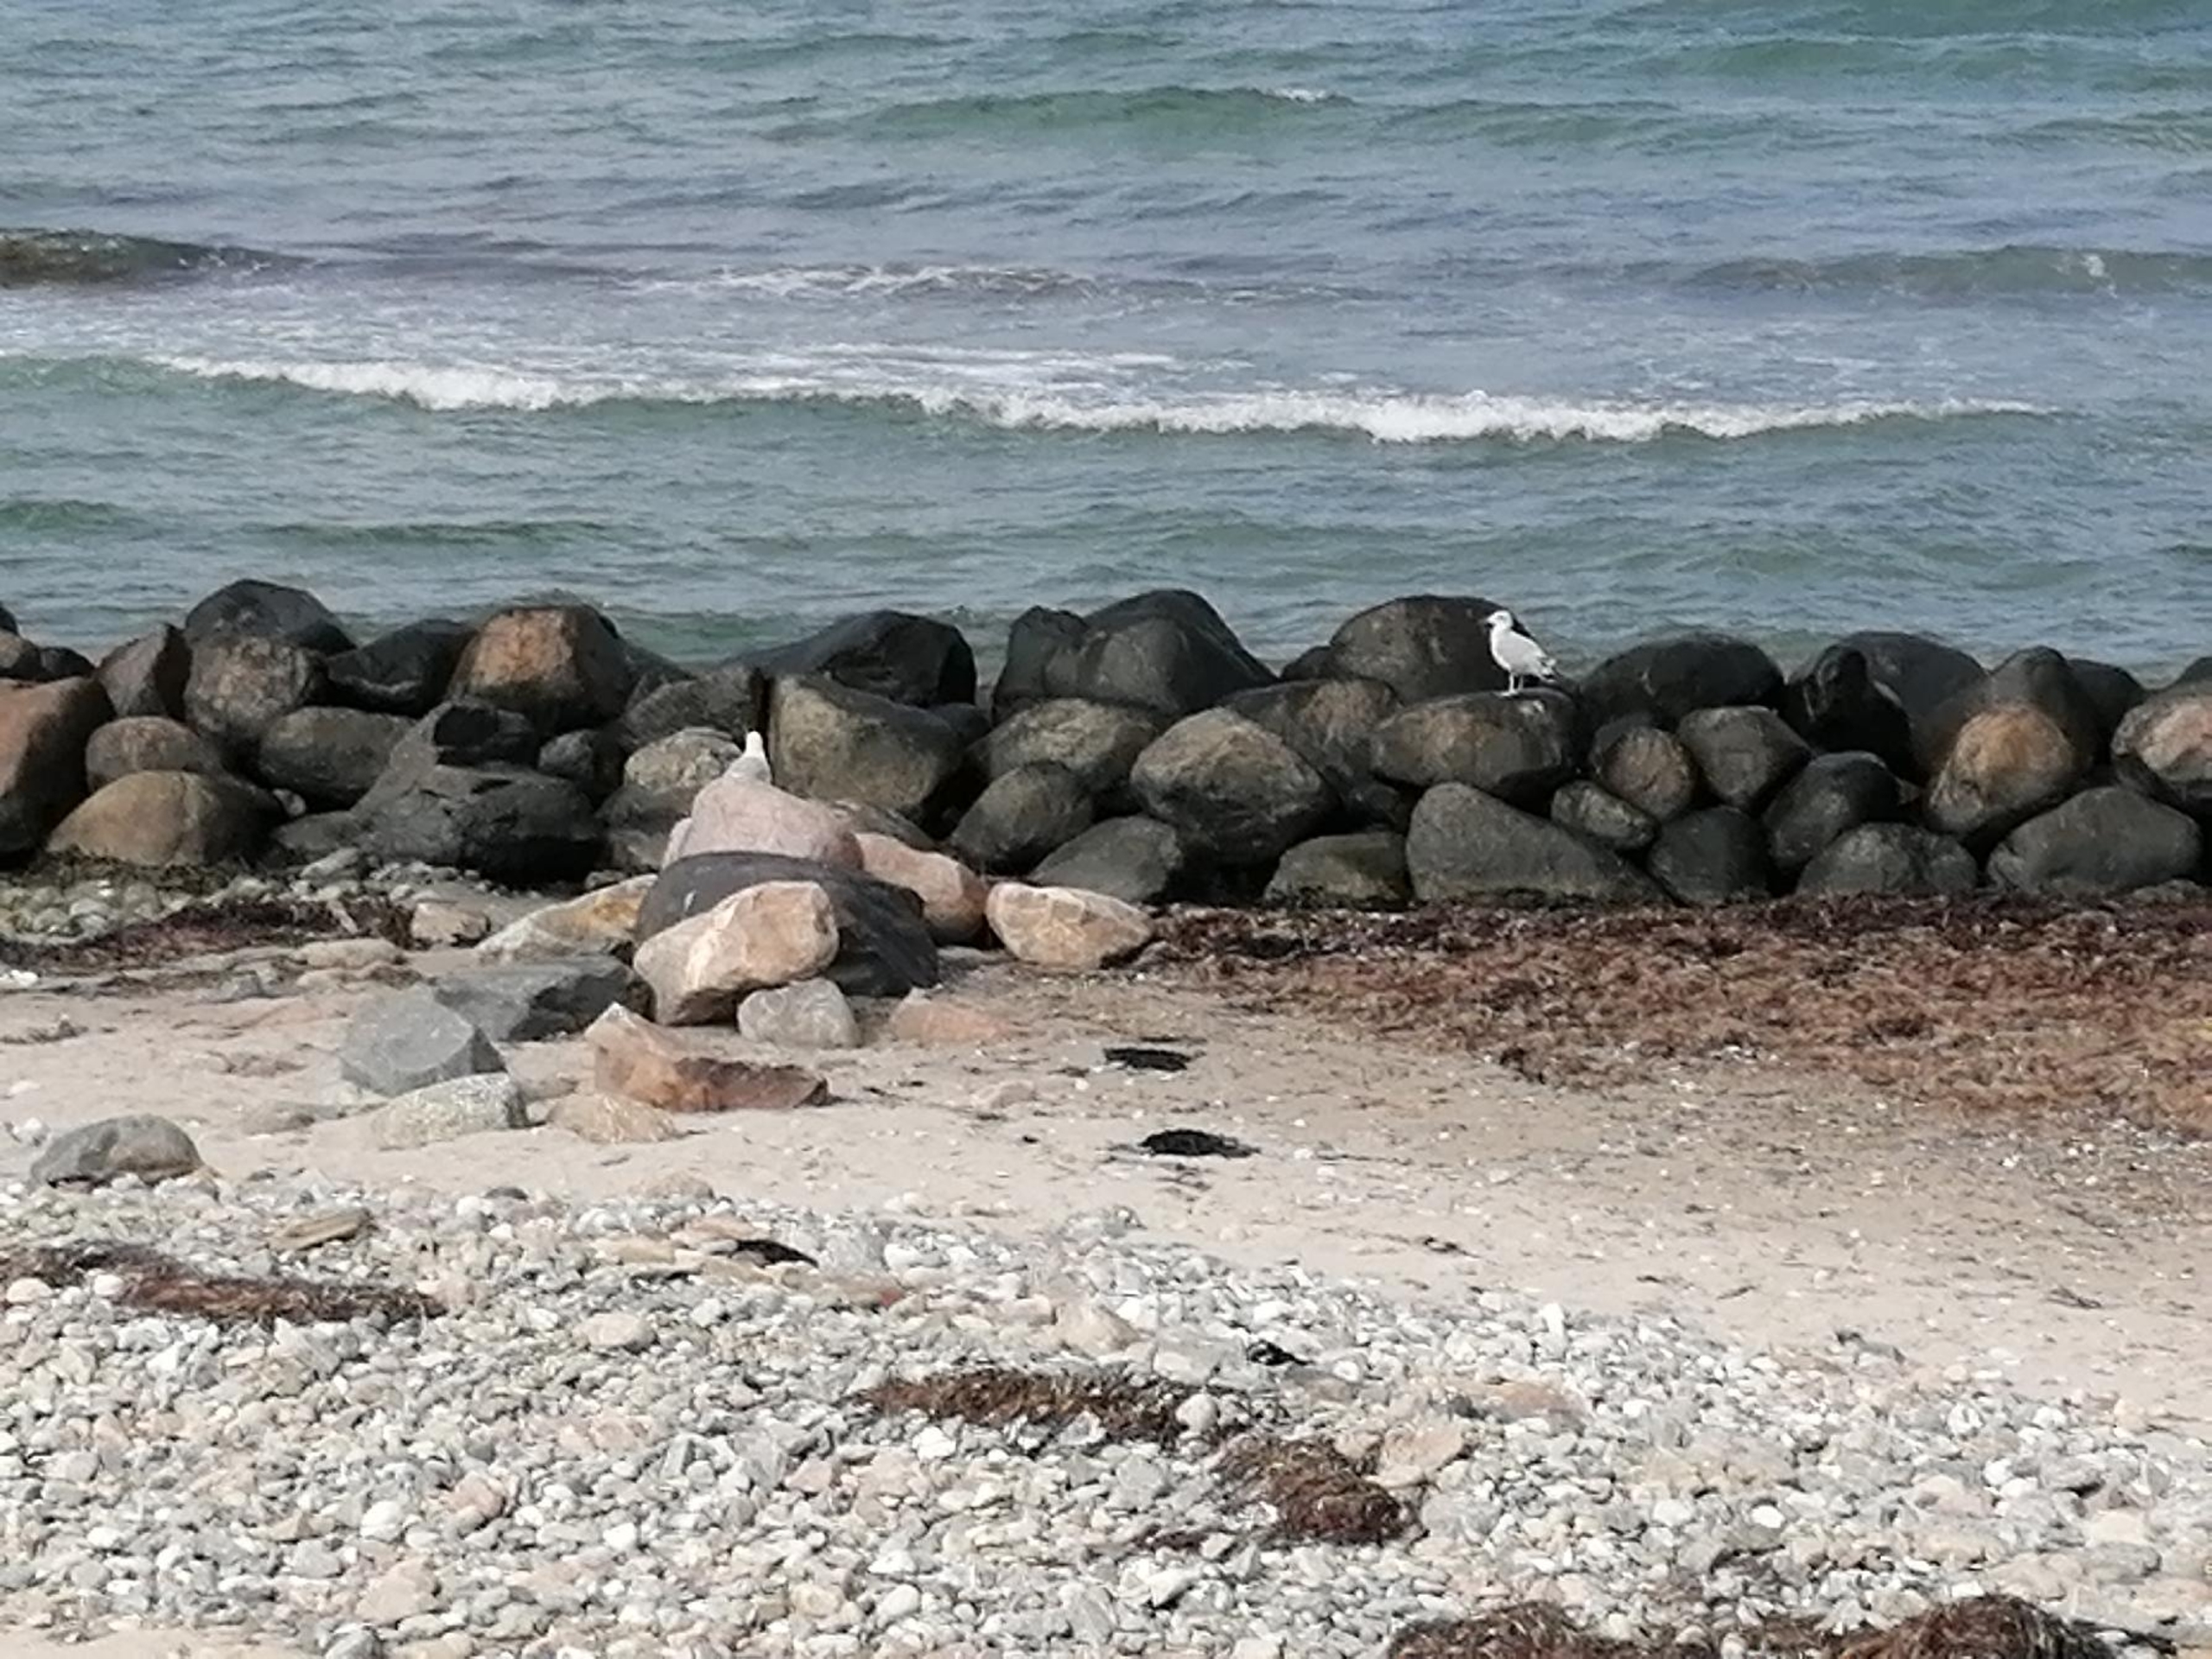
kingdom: Animalia
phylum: Chordata
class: Aves
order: Charadriiformes
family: Laridae
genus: Larus
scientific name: Larus argentatus
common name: Sølvmåge
